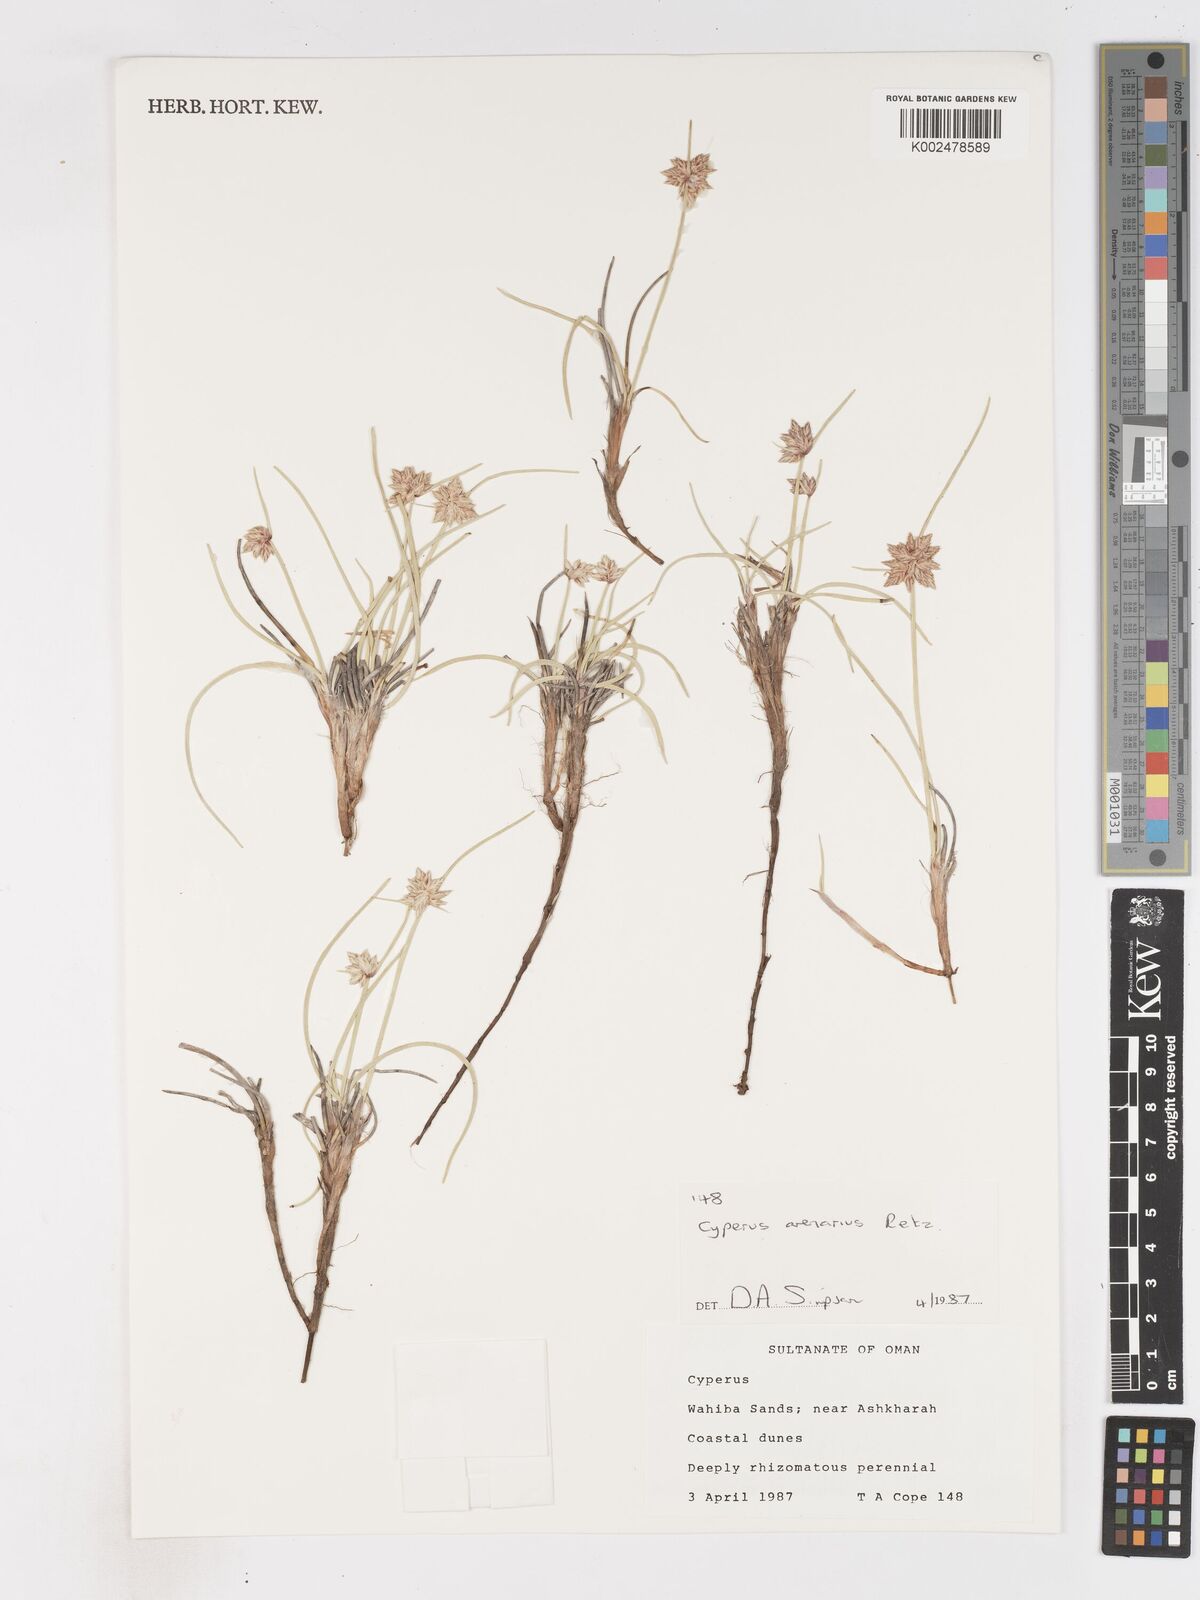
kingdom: Plantae
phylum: Tracheophyta
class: Liliopsida
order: Poales
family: Cyperaceae
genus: Cyperus
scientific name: Cyperus arenarius
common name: Dwarf sedge
